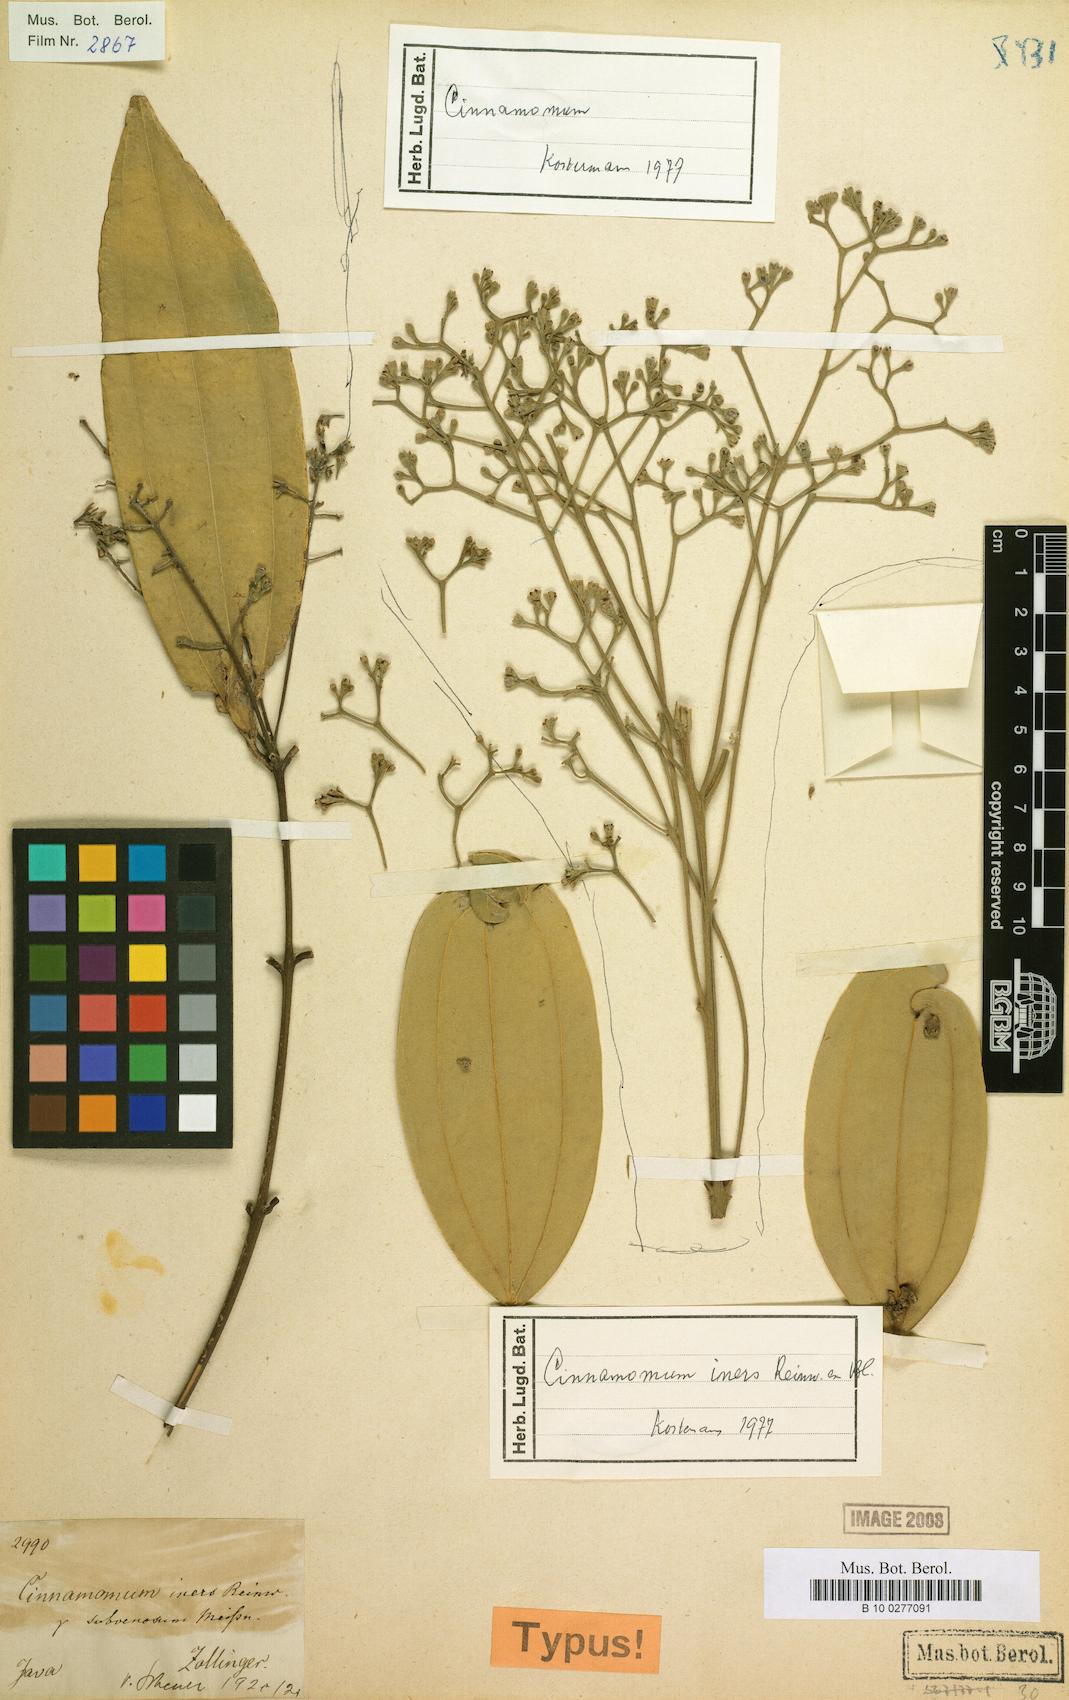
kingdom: Plantae
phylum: Tracheophyta
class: Magnoliopsida
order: Laurales
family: Lauraceae
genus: Cinnamomum
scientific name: Cinnamomum iners
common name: Wild cinnamon
